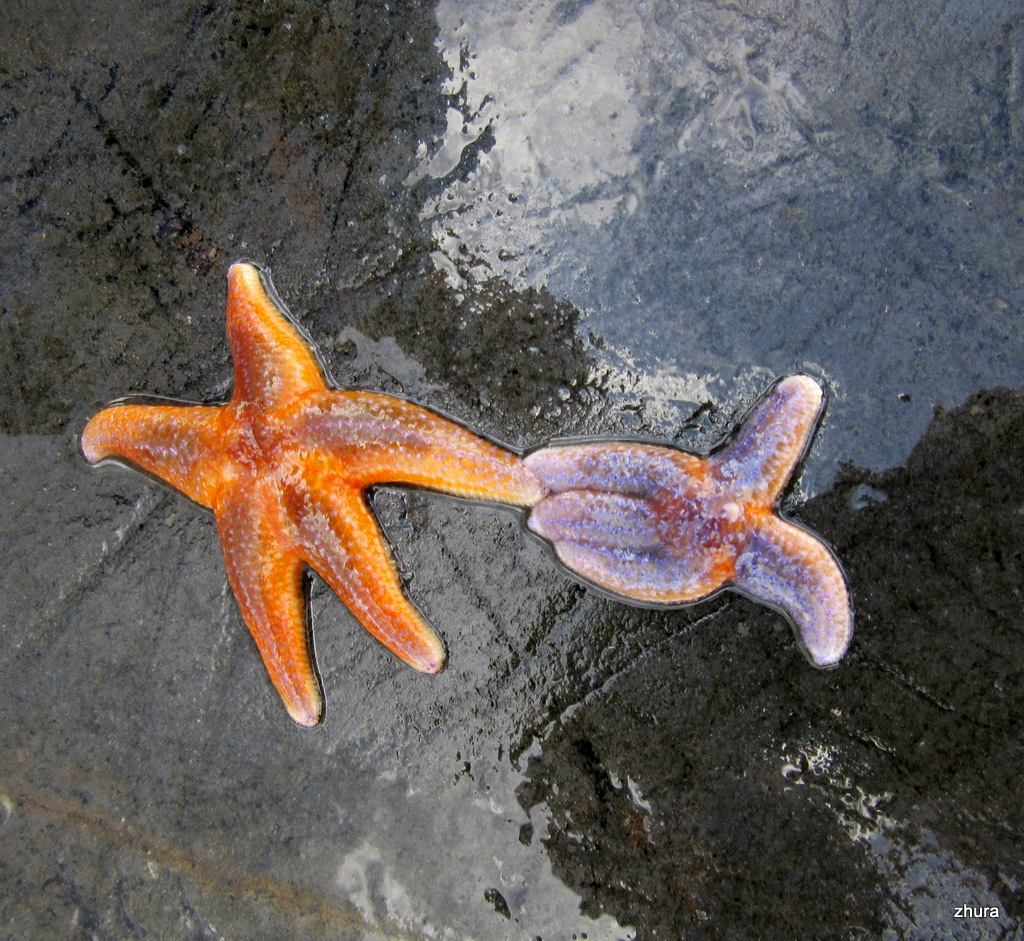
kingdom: Animalia
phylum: Echinodermata
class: Asteroidea
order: Forcipulatida
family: Asteriidae
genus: Asterias
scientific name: Asterias rubens
